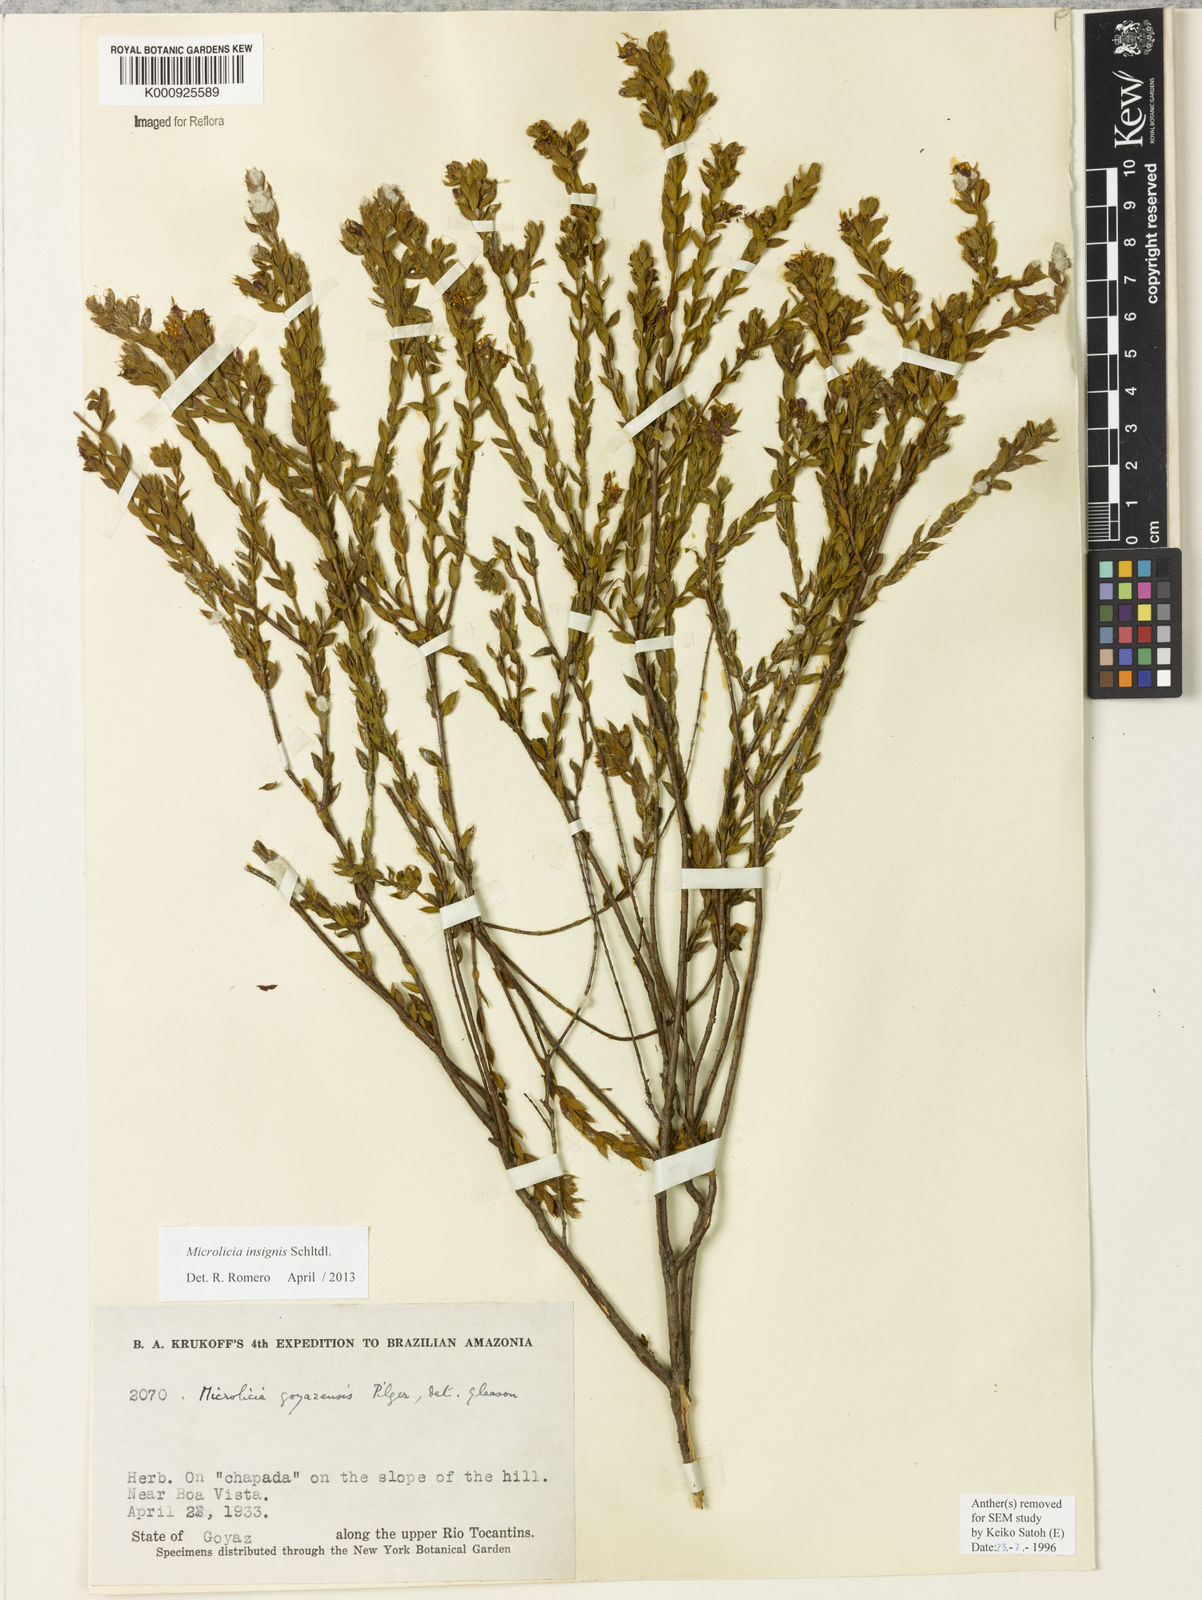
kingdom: Plantae
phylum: Tracheophyta
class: Magnoliopsida
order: Myrtales
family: Melastomataceae
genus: Microlicia
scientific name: Microlicia
